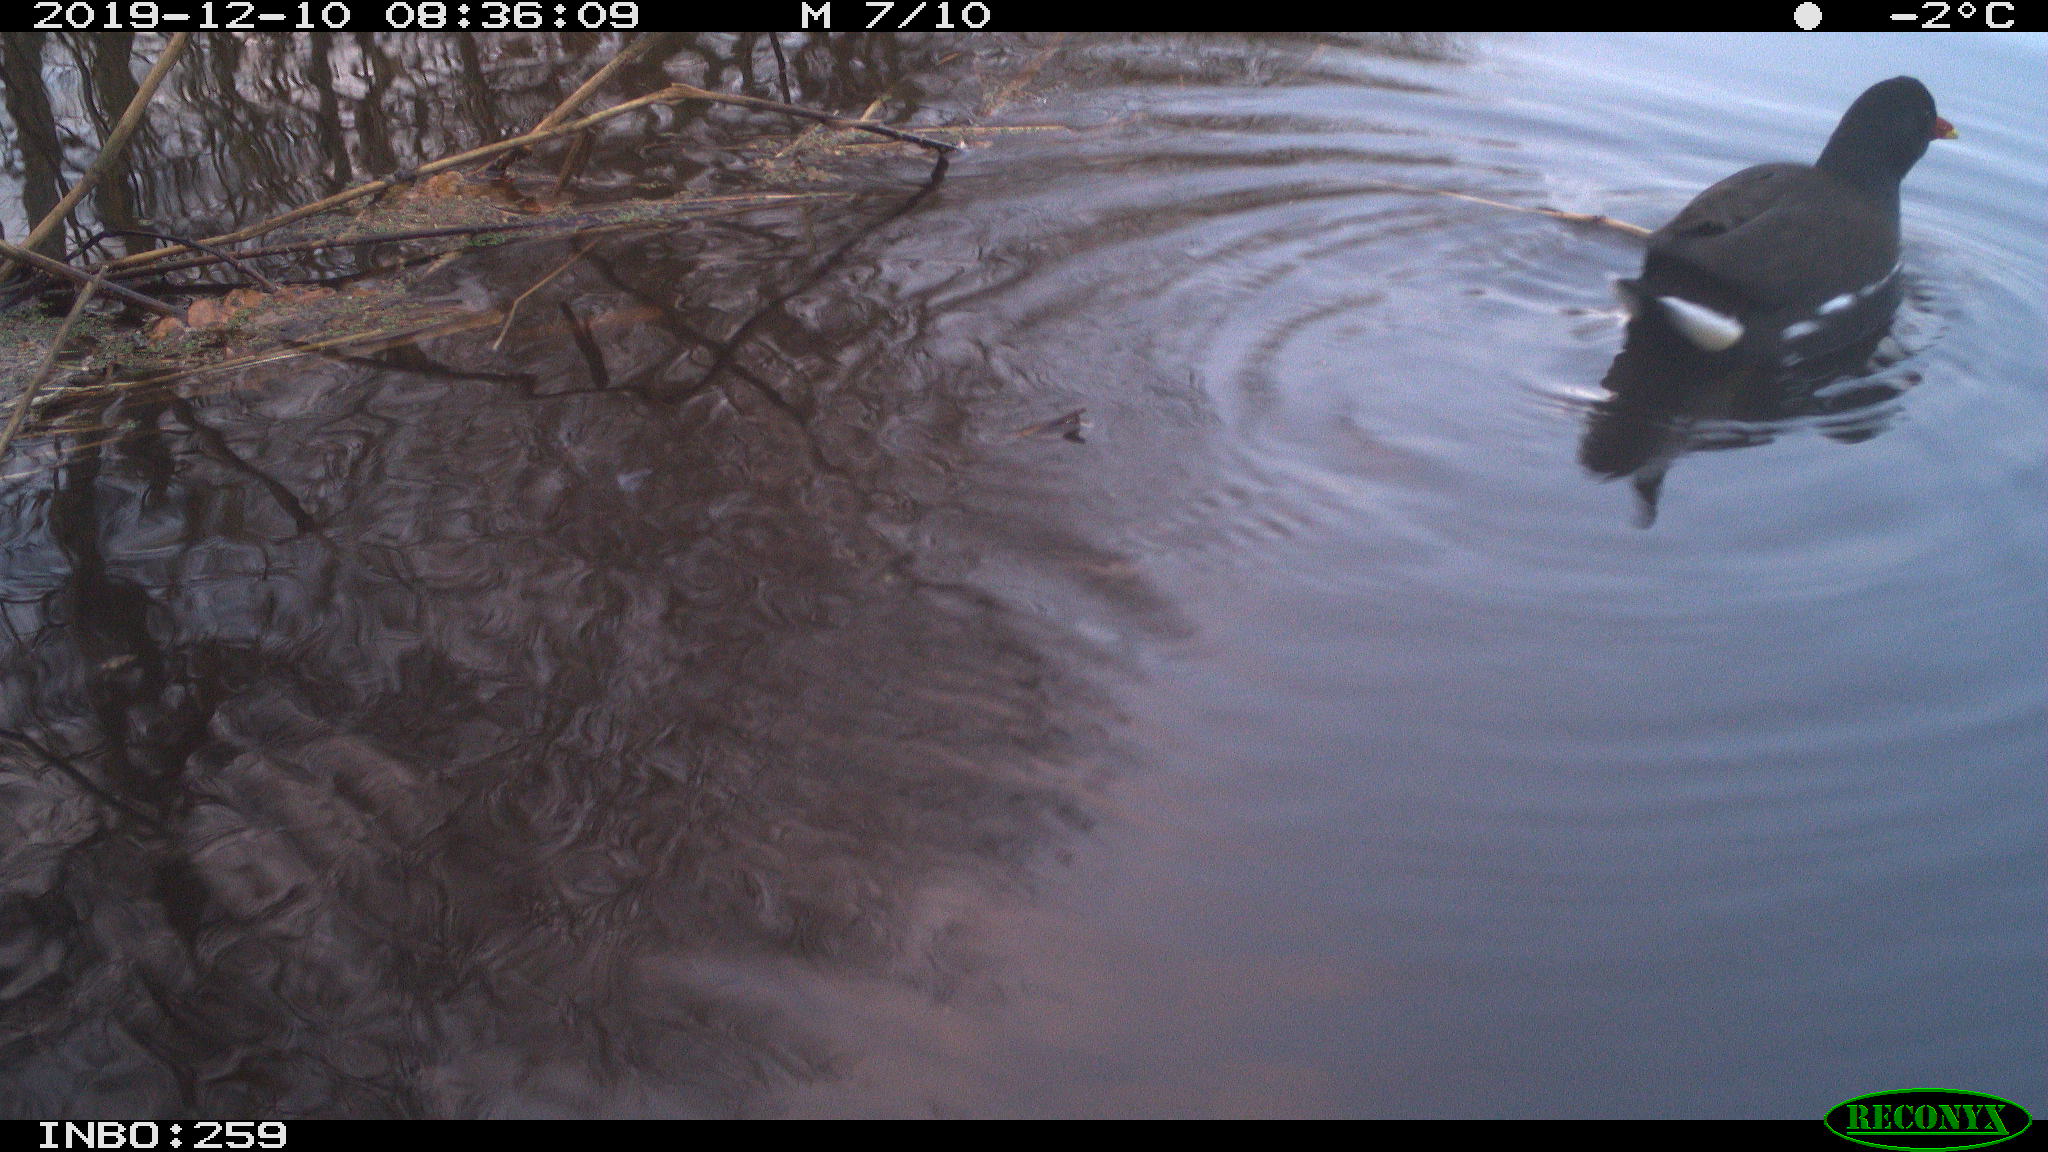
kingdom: Animalia
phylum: Chordata
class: Aves
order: Gruiformes
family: Rallidae
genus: Gallinula
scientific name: Gallinula chloropus
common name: Common moorhen
